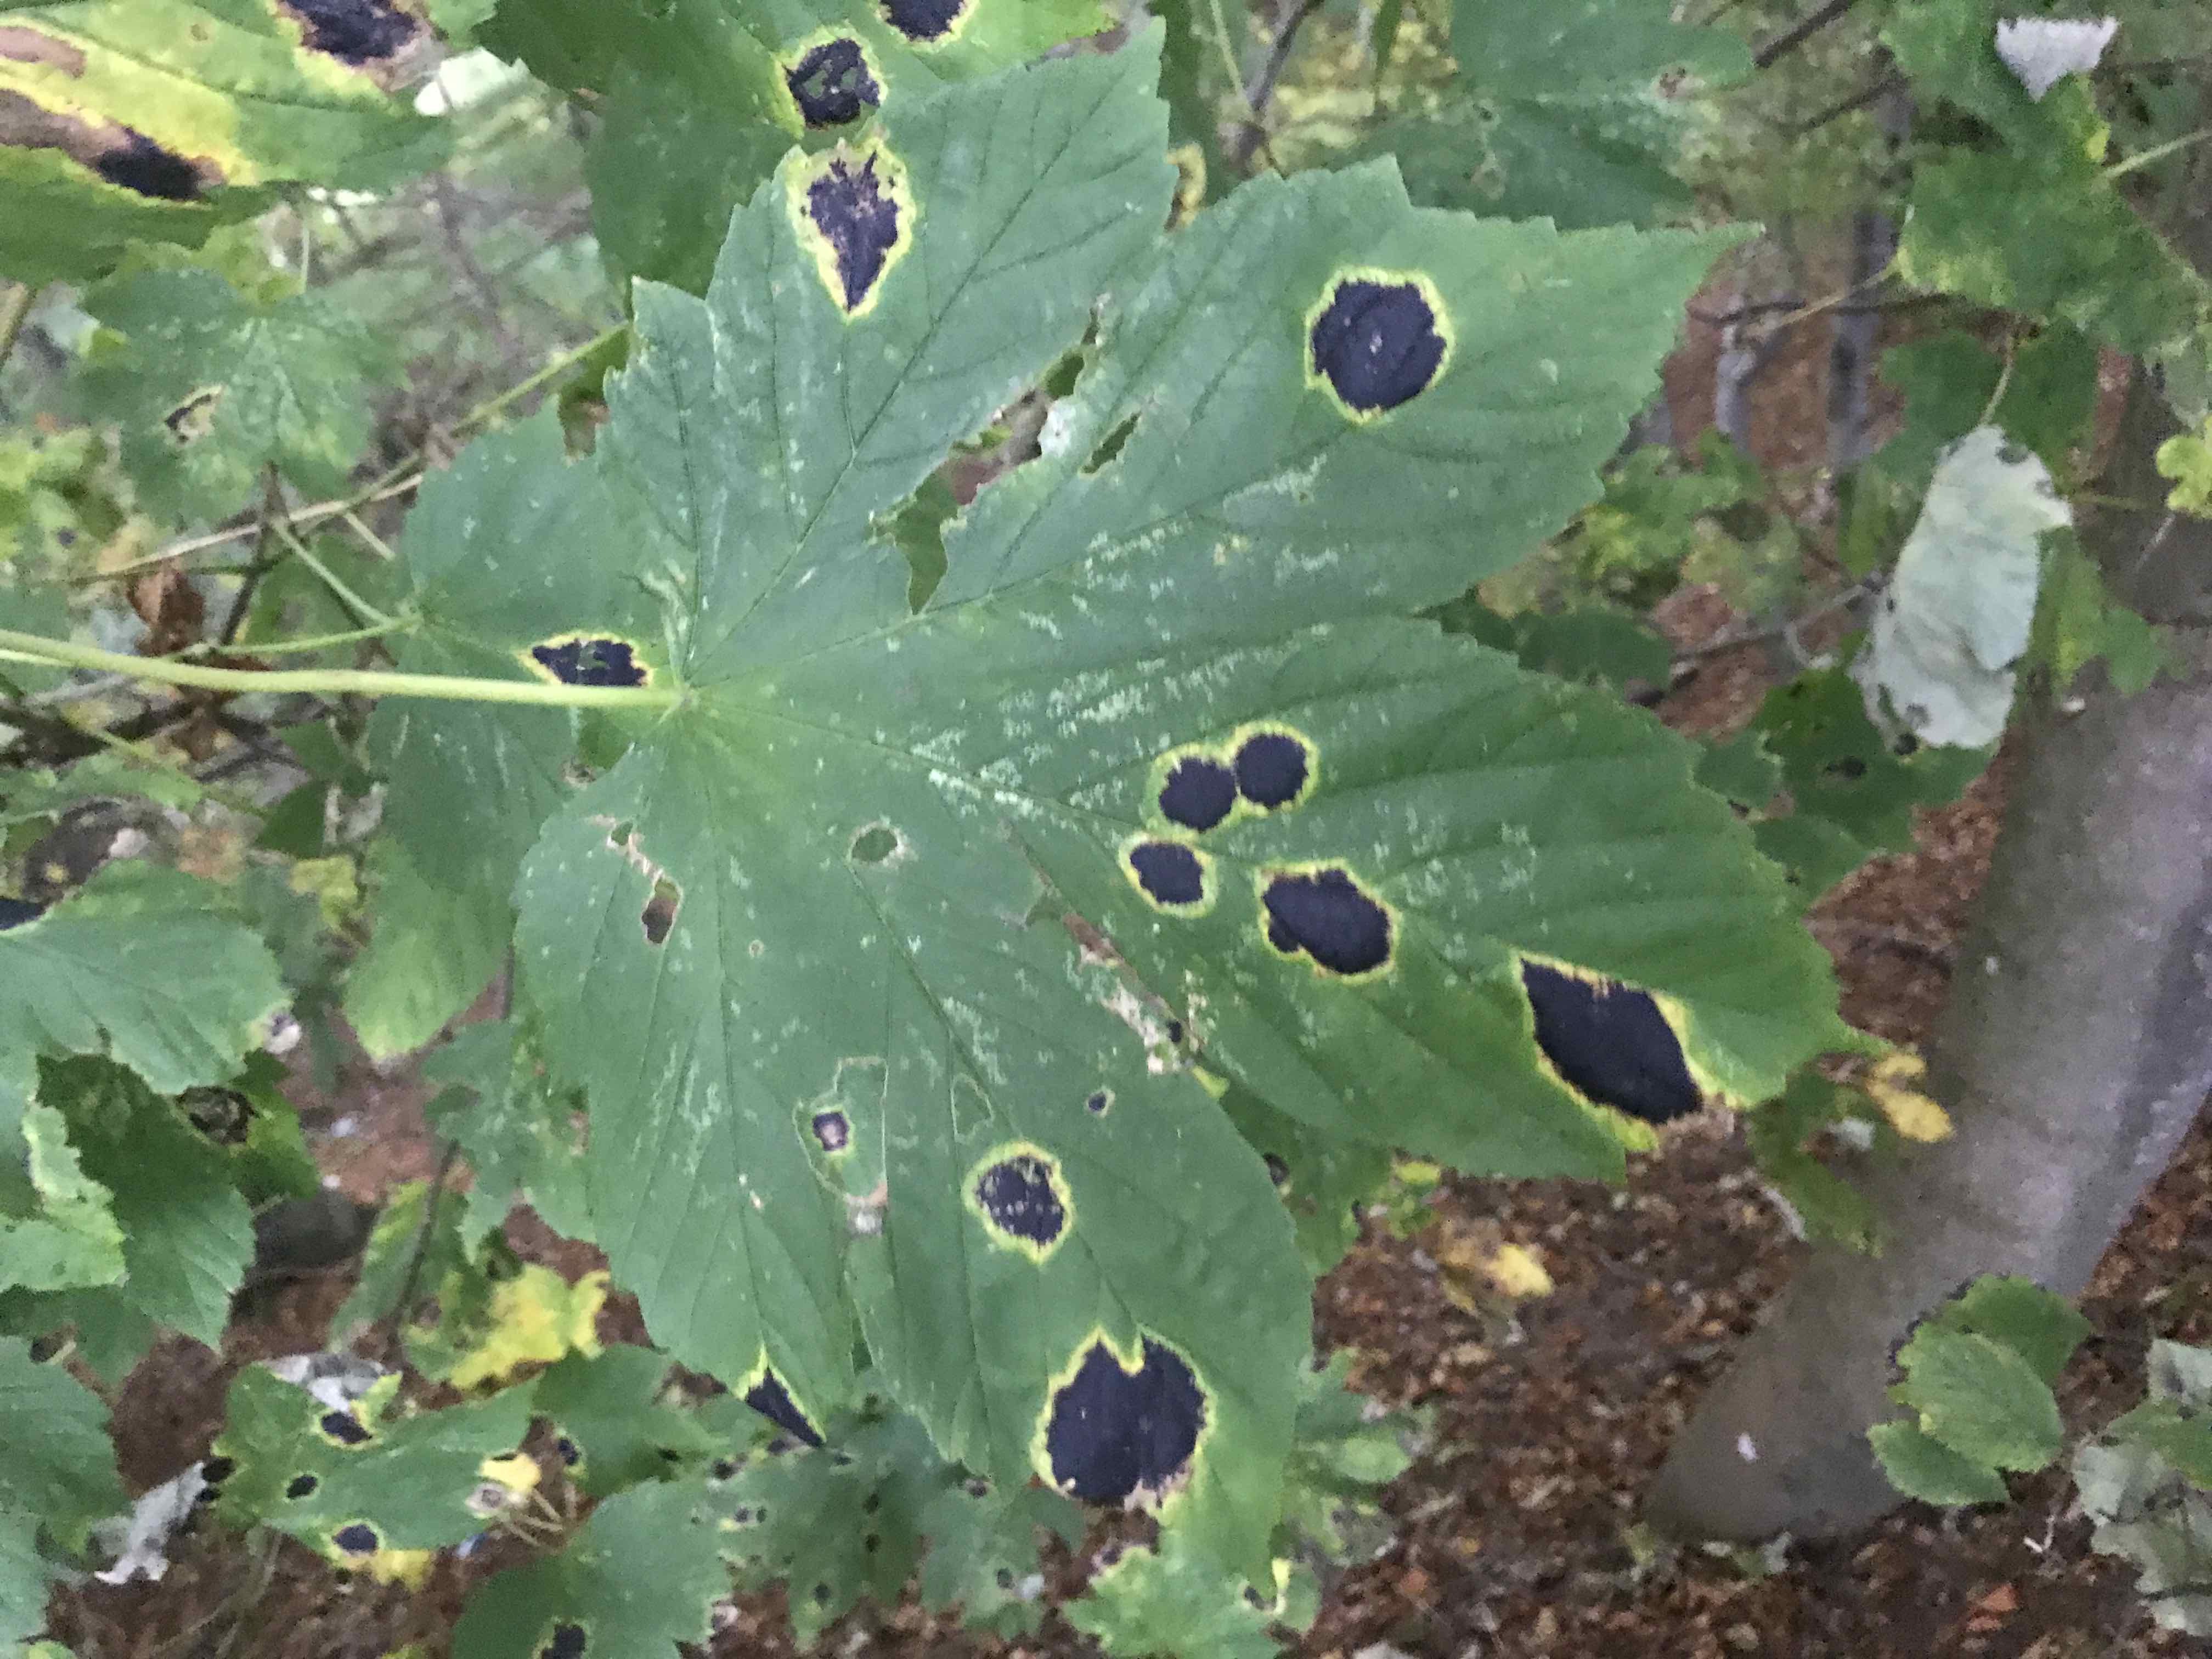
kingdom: Fungi
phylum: Ascomycota
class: Leotiomycetes
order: Rhytismatales
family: Rhytismataceae
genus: Rhytisma
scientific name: Rhytisma acerinum
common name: ahorn-rynkeplet
